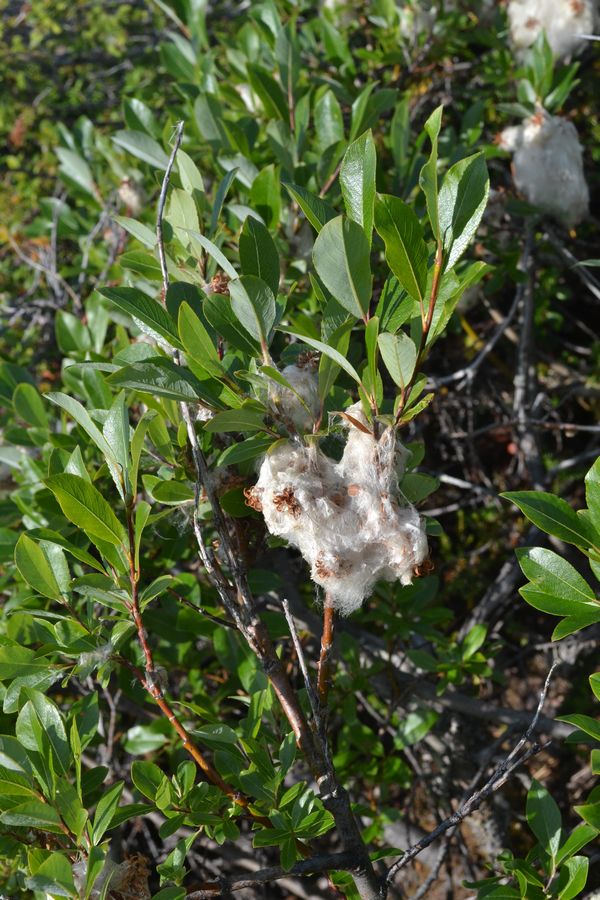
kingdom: Plantae
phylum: Tracheophyta
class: Magnoliopsida
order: Malpighiales
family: Salicaceae
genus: Salix
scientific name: Salix phylicifolia
